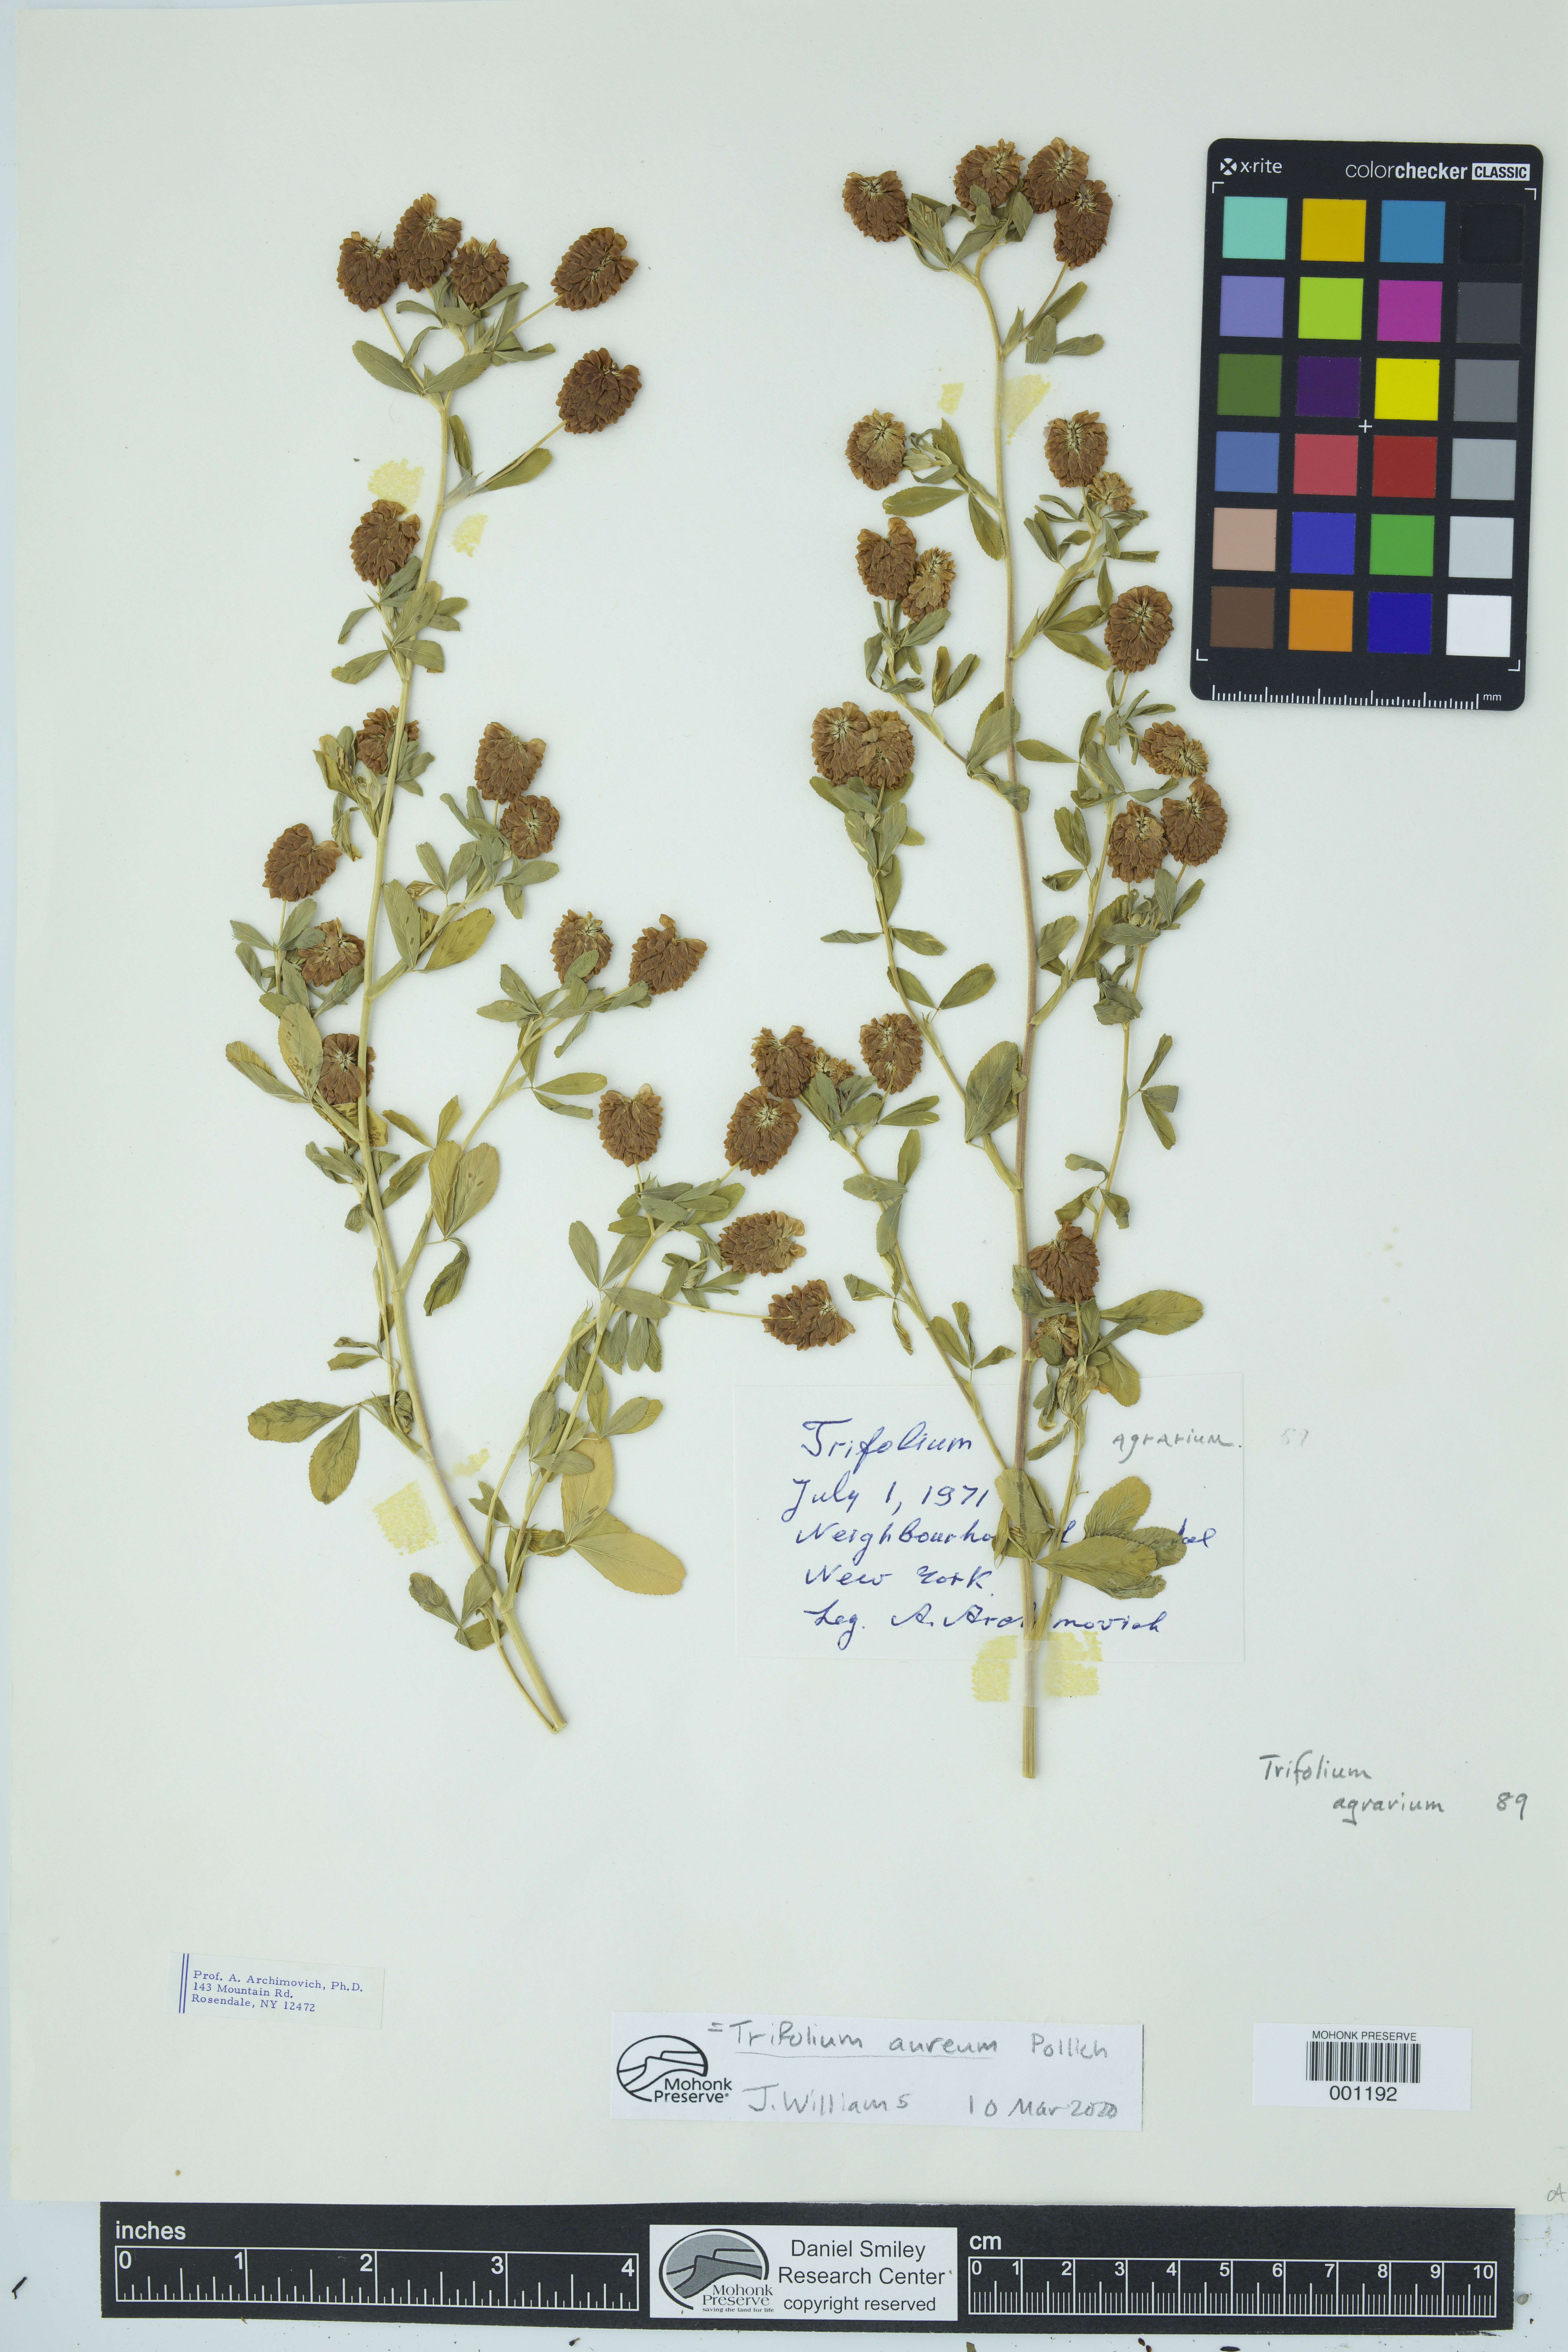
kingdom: Plantae
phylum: Tracheophyta
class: Magnoliopsida
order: Fabales
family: Fabaceae
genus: Trifolium
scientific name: Trifolium aureum
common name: Golden clover
